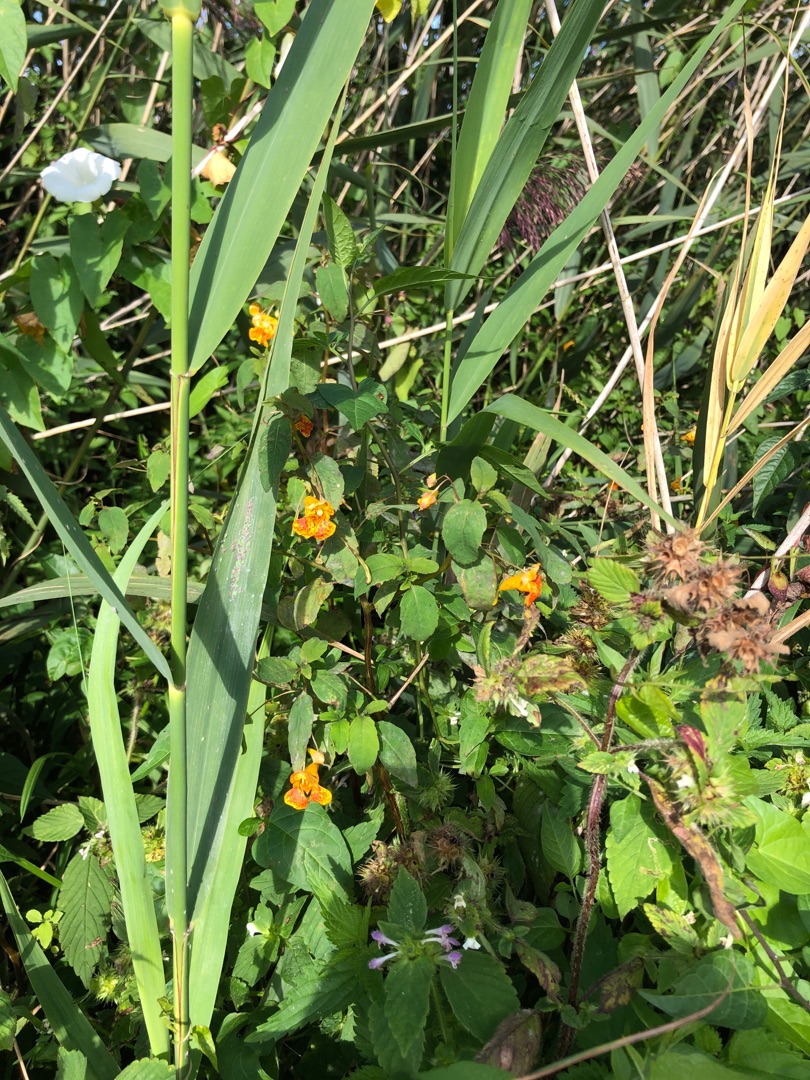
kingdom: Plantae
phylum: Tracheophyta
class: Magnoliopsida
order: Ericales
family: Balsaminaceae
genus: Impatiens
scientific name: Impatiens capensis
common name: Orange-balsamin
